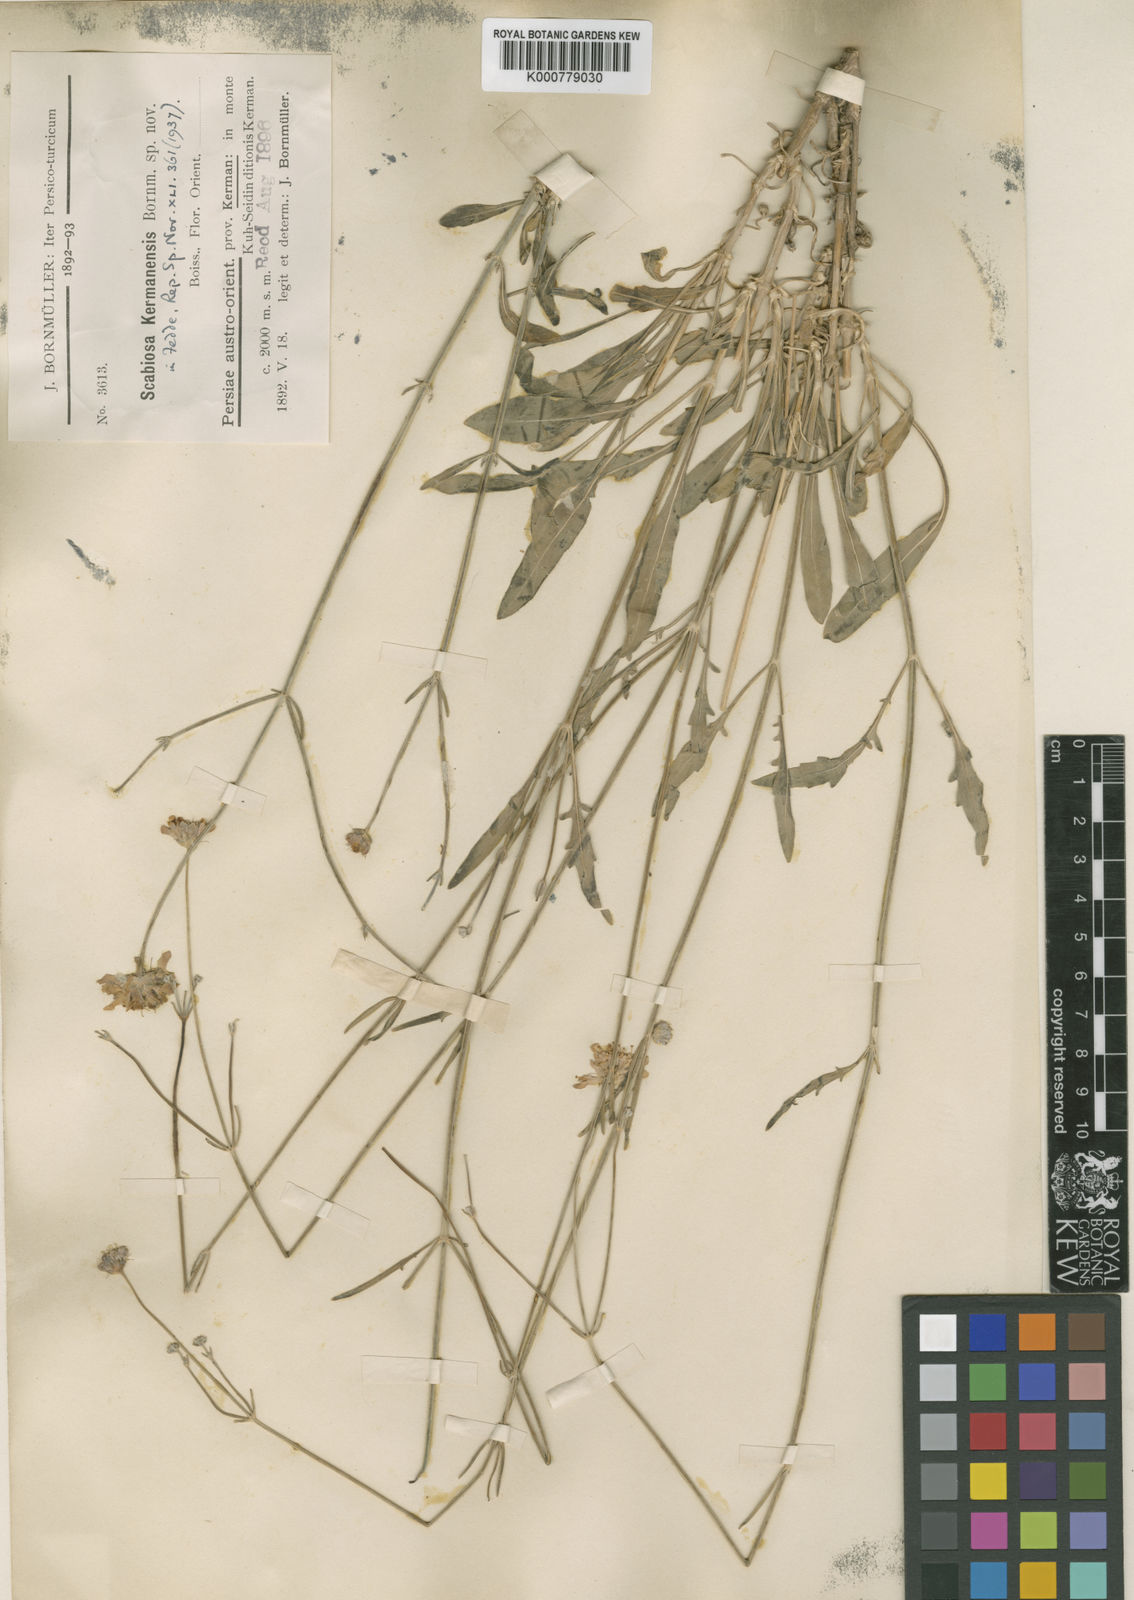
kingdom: Plantae
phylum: Tracheophyta
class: Magnoliopsida
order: Dipsacales
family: Caprifoliaceae
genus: Lomelosia
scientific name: Lomelosia candollei
